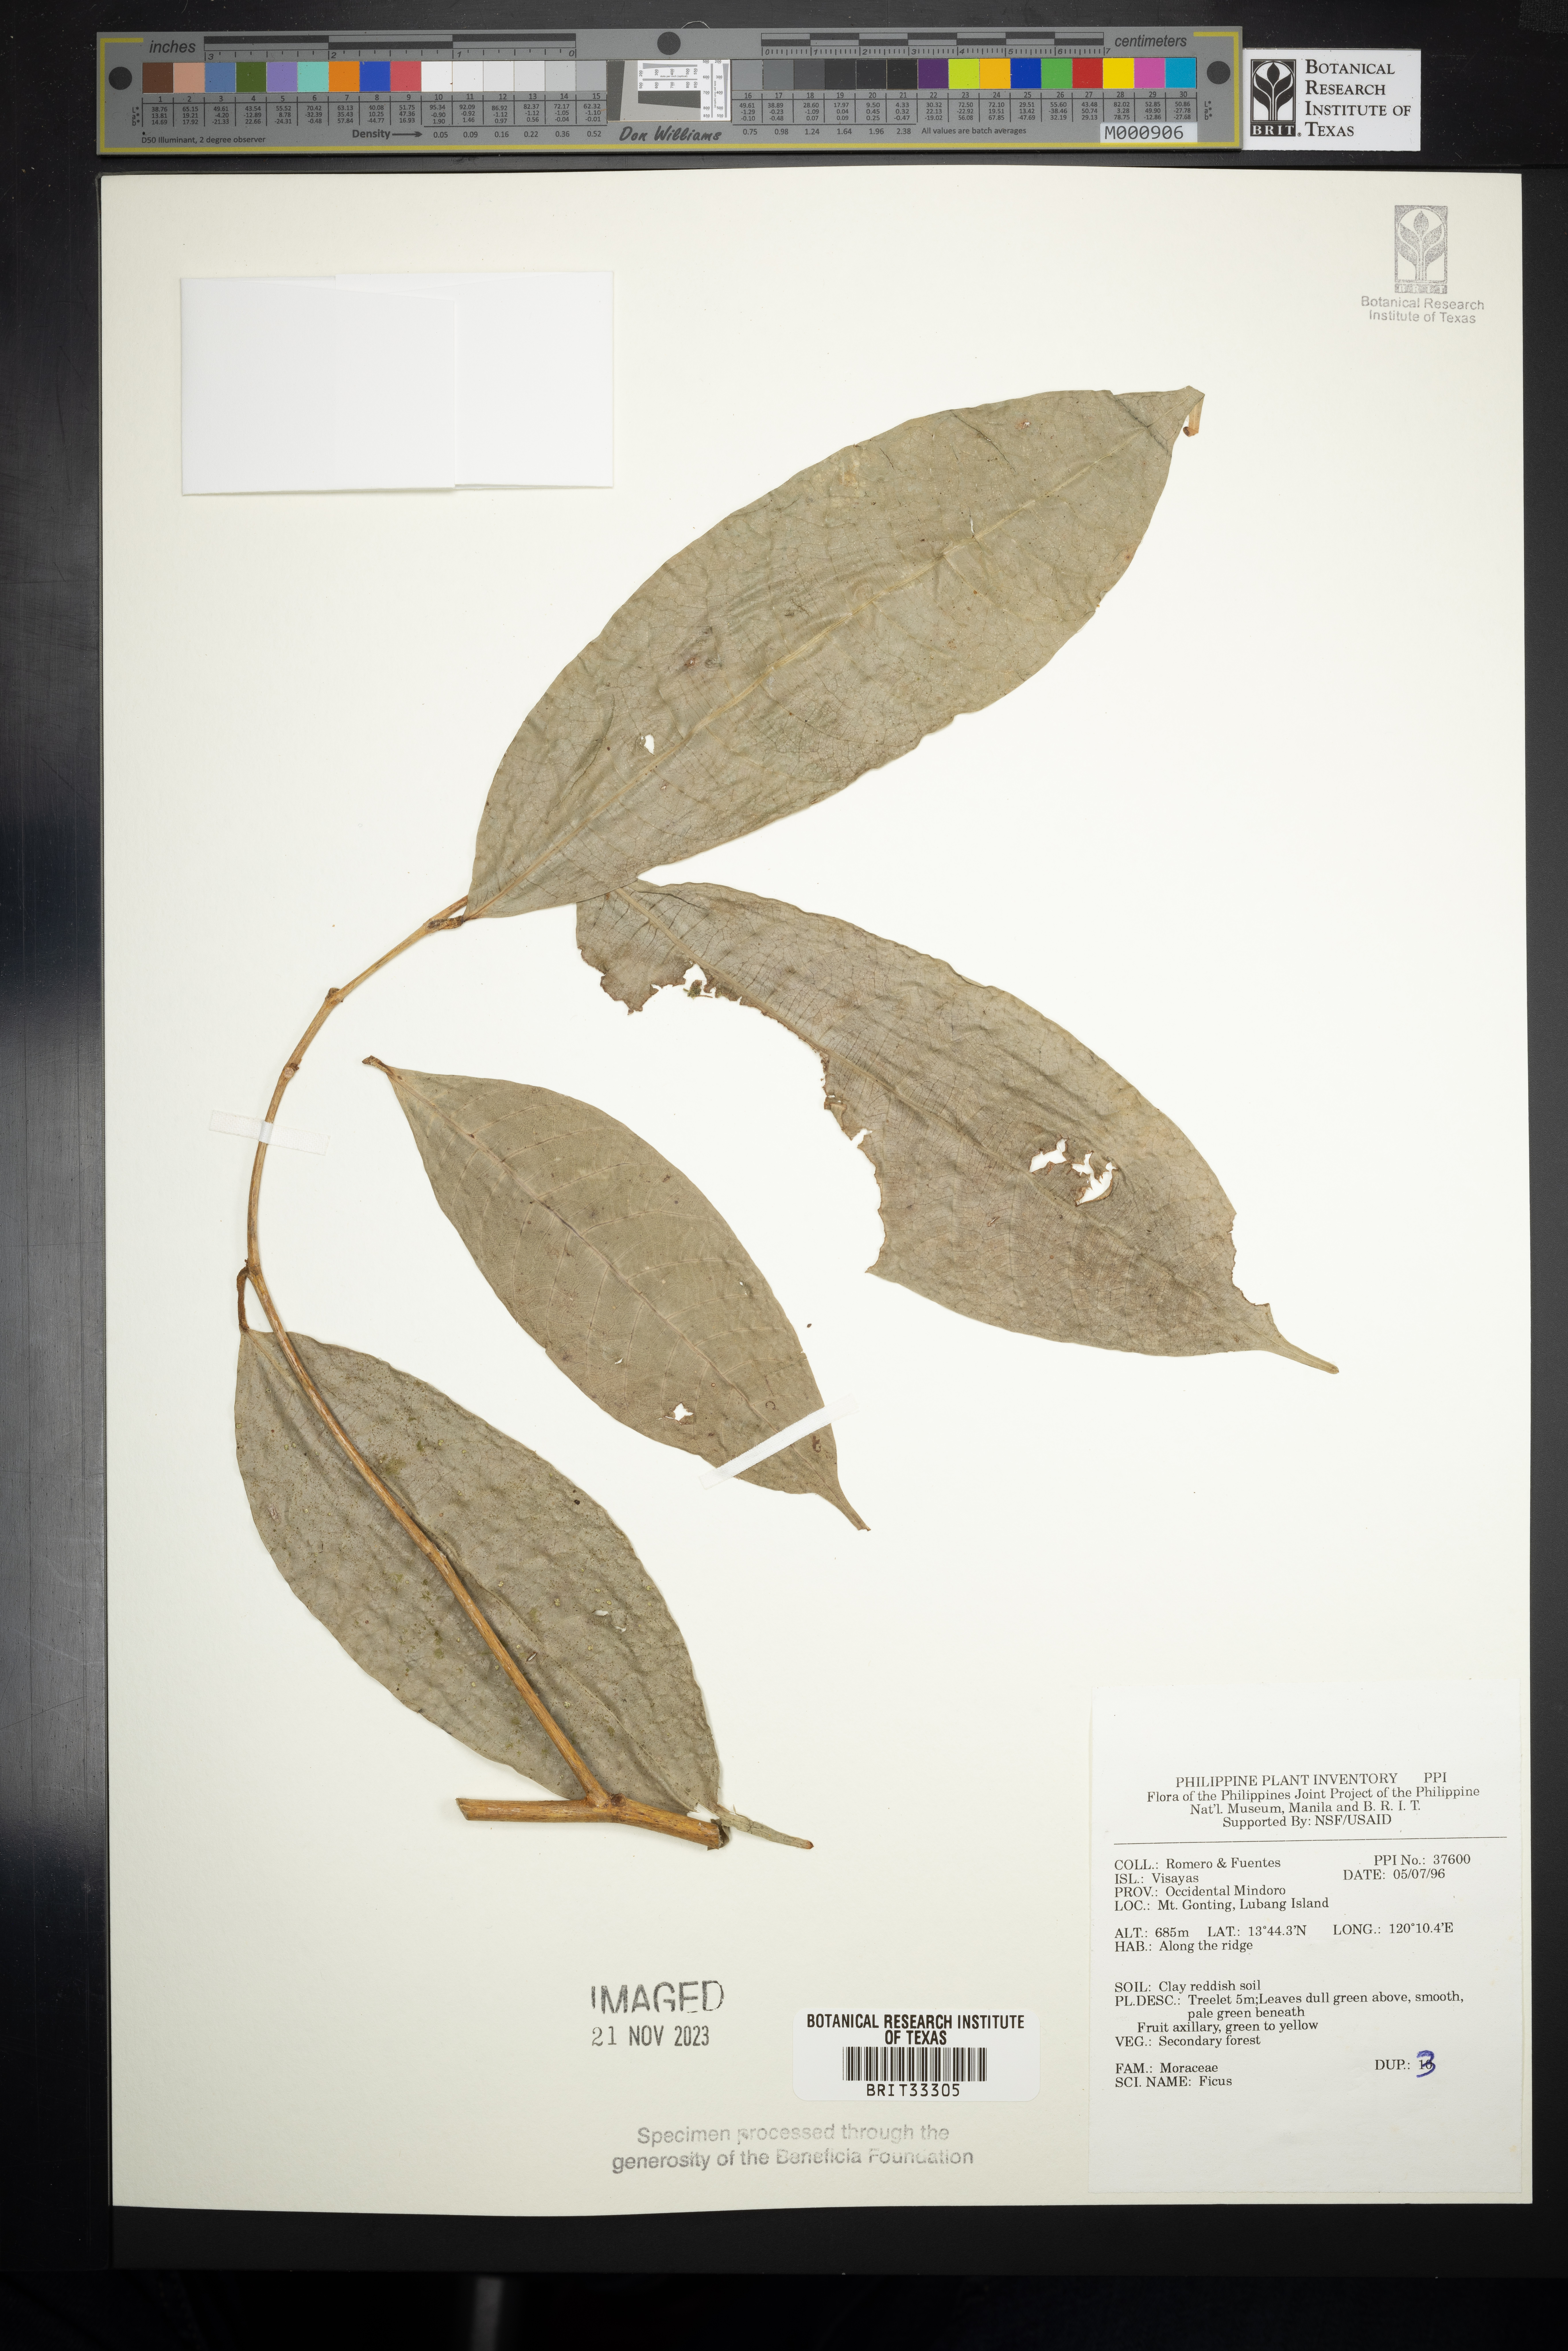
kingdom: Plantae
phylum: Tracheophyta
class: Magnoliopsida
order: Rosales
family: Moraceae
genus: Ficus
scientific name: Ficus
